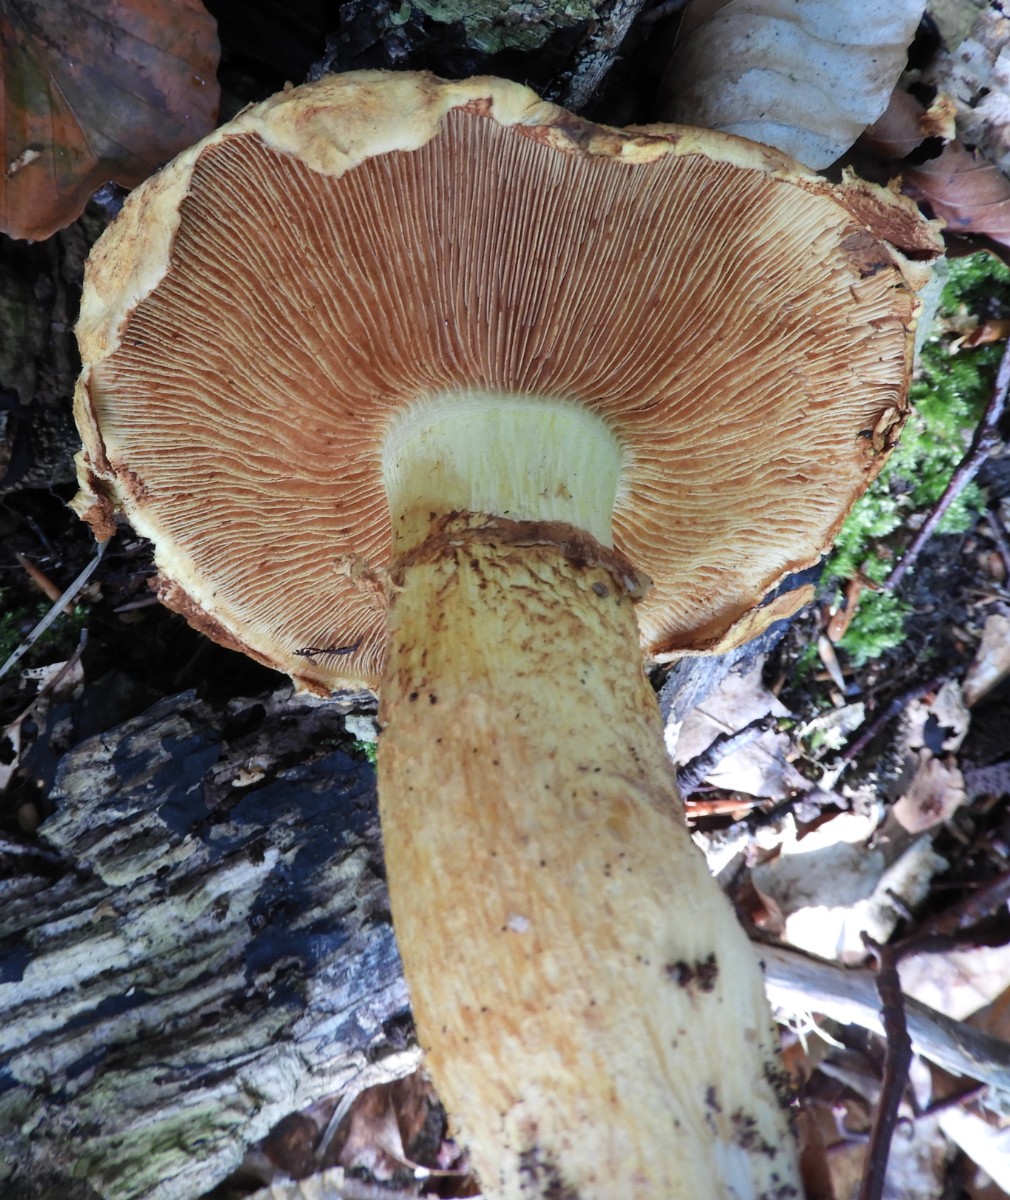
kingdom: Fungi
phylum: Basidiomycota
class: Agaricomycetes
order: Agaricales
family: Hymenogastraceae
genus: Gymnopilus
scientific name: Gymnopilus spectabilis
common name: fibret flammehat
